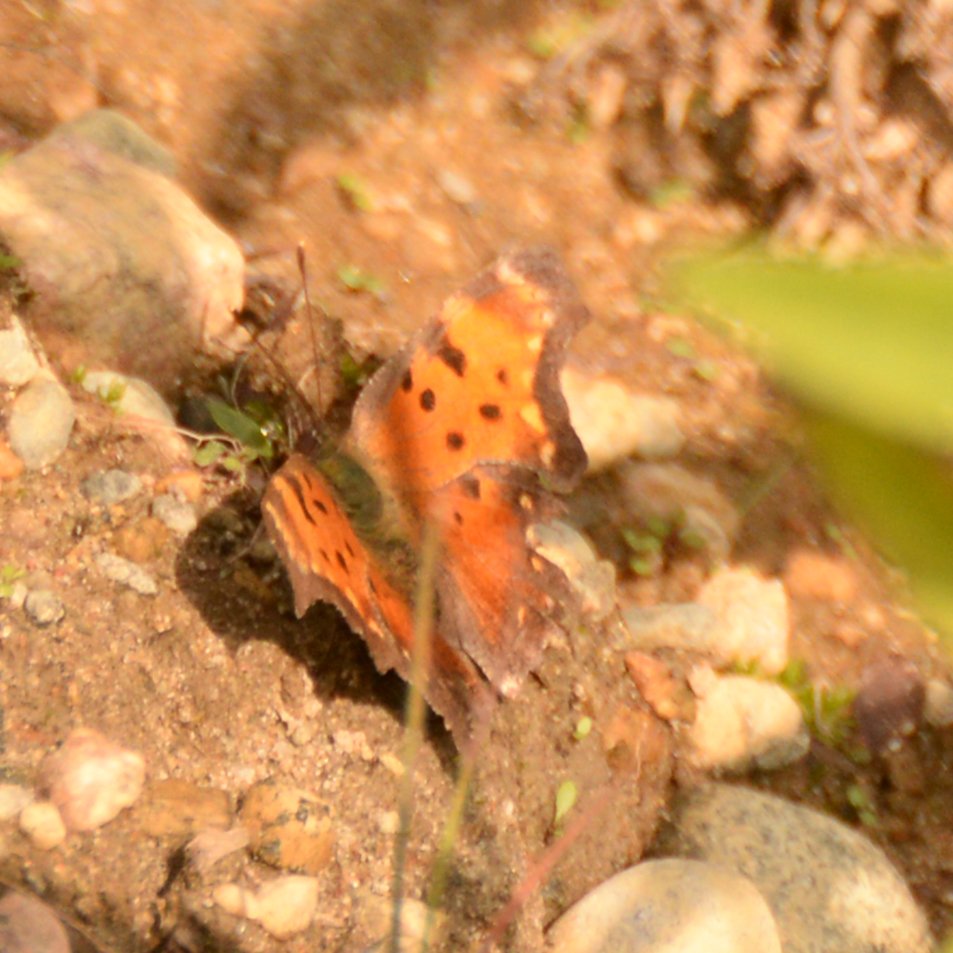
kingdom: Animalia
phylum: Arthropoda
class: Insecta
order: Lepidoptera
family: Nymphalidae
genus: Polygonia
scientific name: Polygonia progne
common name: Gray Comma
